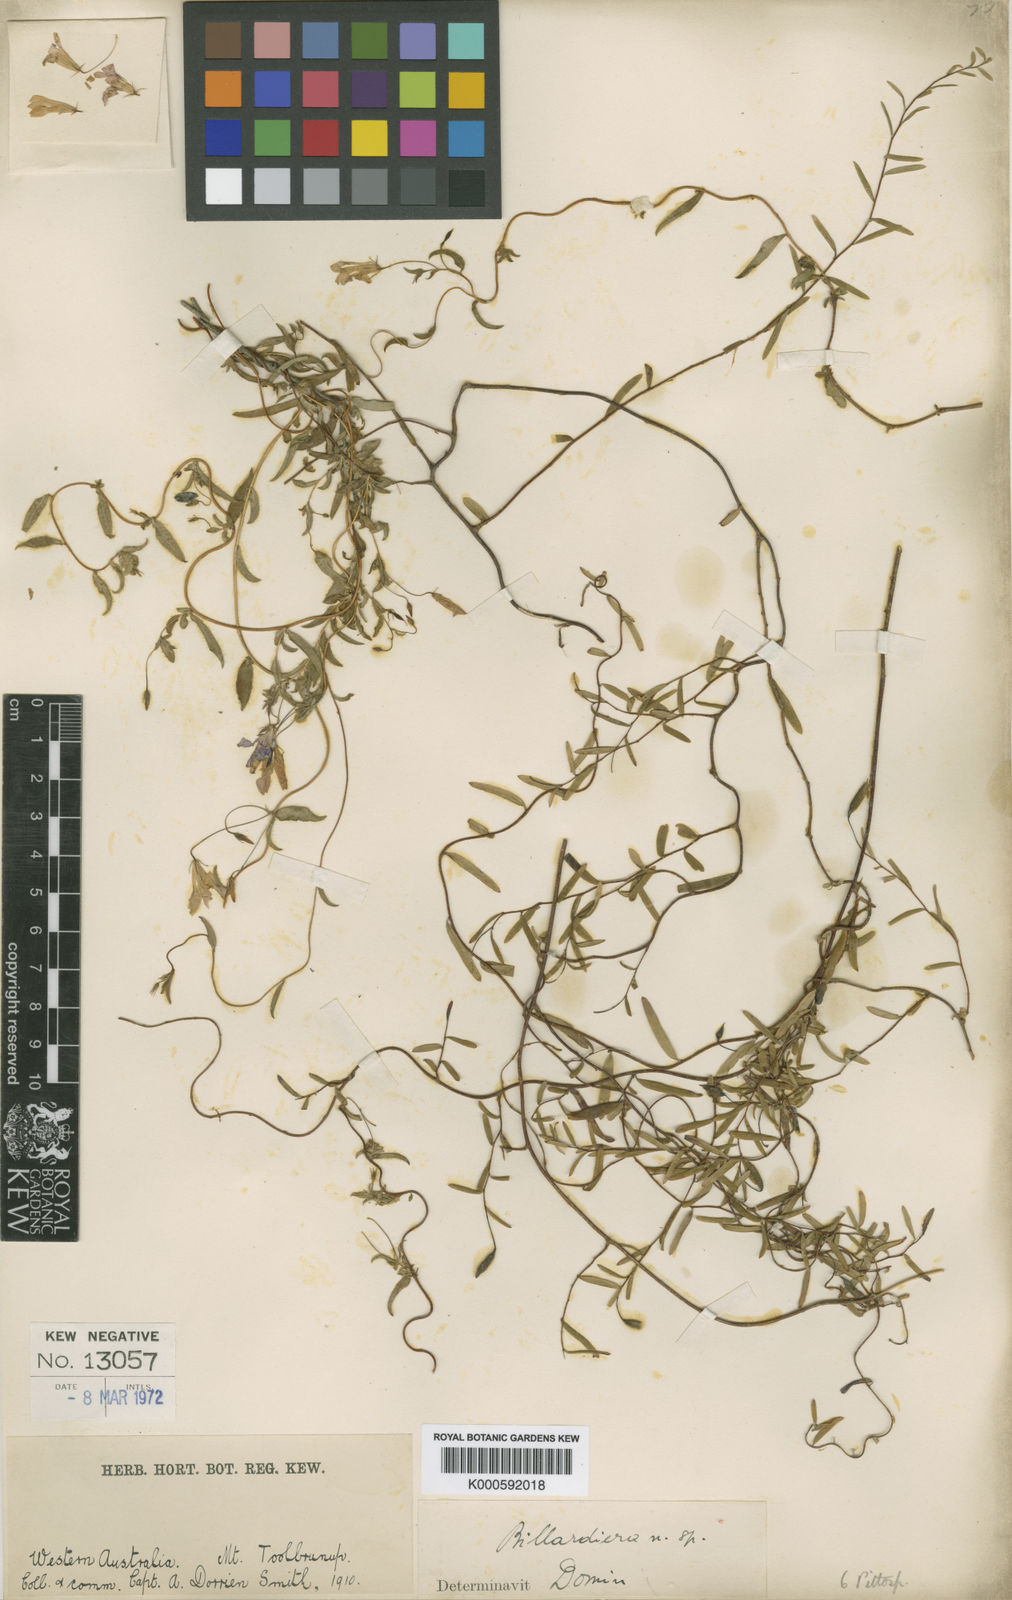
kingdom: Plantae
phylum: Tracheophyta
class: Magnoliopsida
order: Apiales
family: Pittosporaceae
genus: Marianthus
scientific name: Marianthus drummondianus
